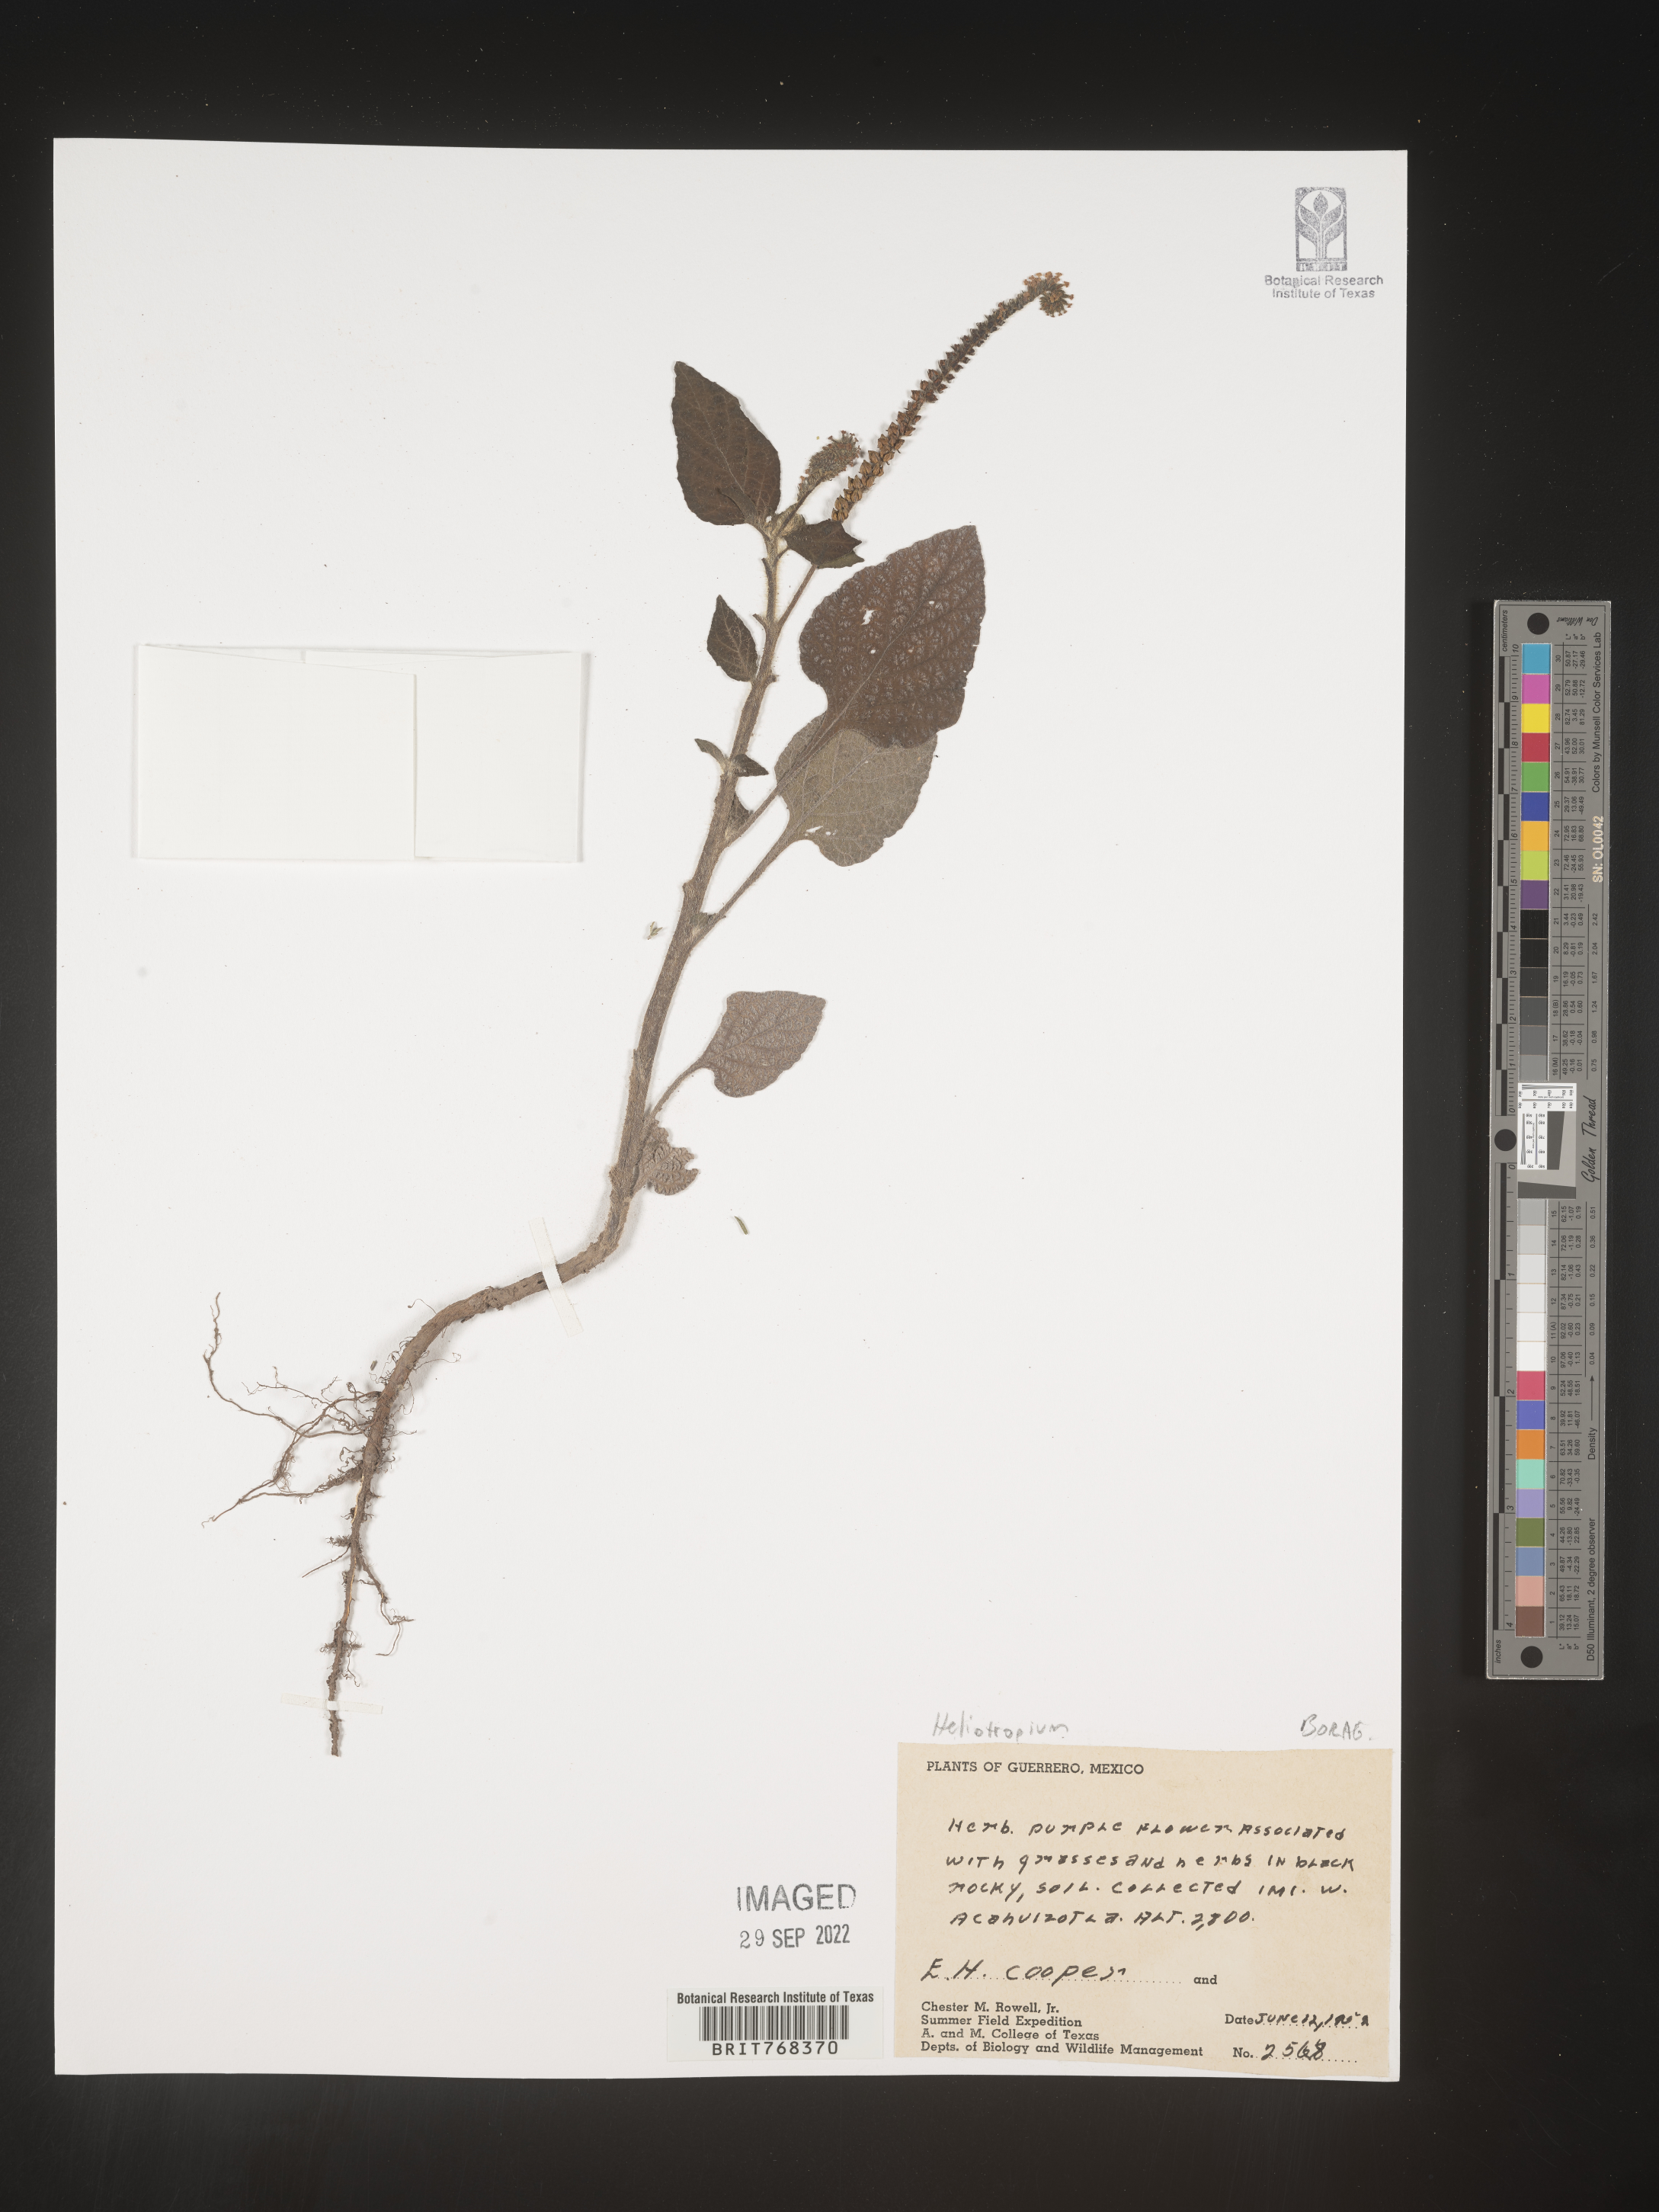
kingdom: Plantae
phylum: Tracheophyta
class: Magnoliopsida
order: Boraginales
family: Heliotropiaceae
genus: Heliotropium
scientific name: Heliotropium
